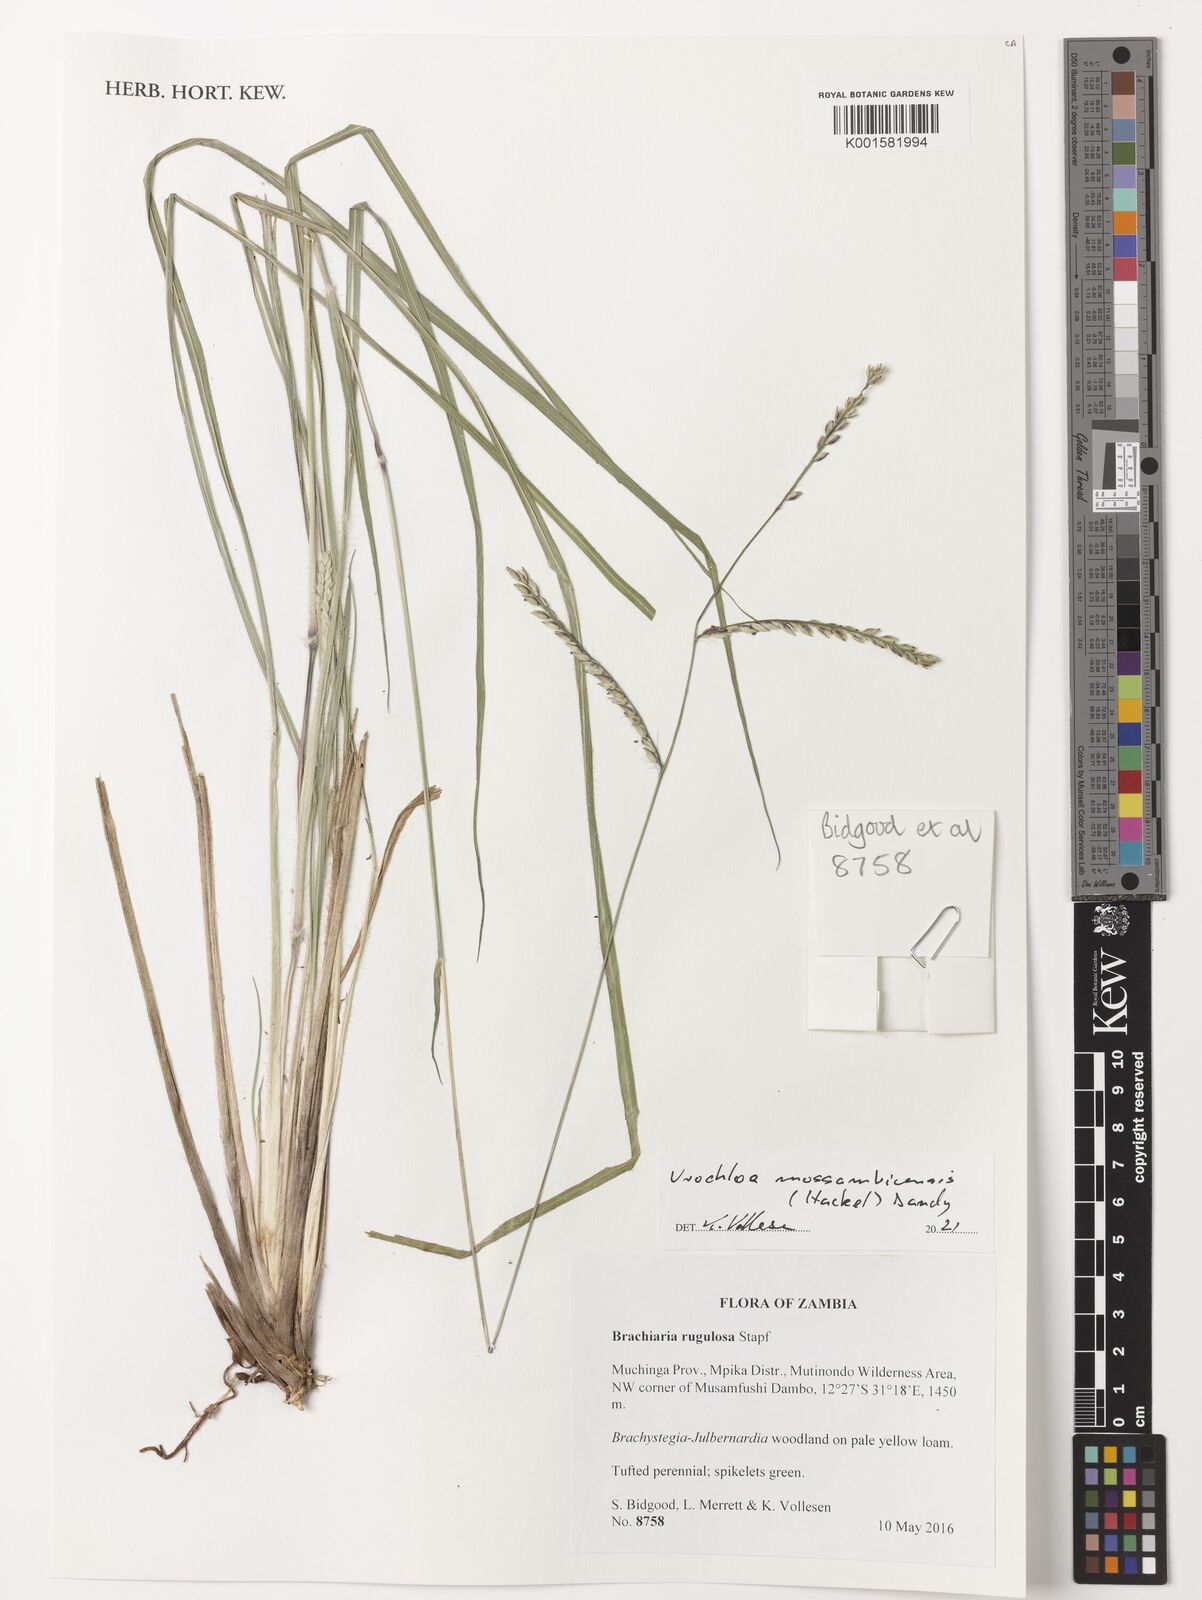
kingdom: Plantae
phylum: Tracheophyta
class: Liliopsida
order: Poales
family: Poaceae
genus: Urochloa
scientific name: Urochloa trichopus
